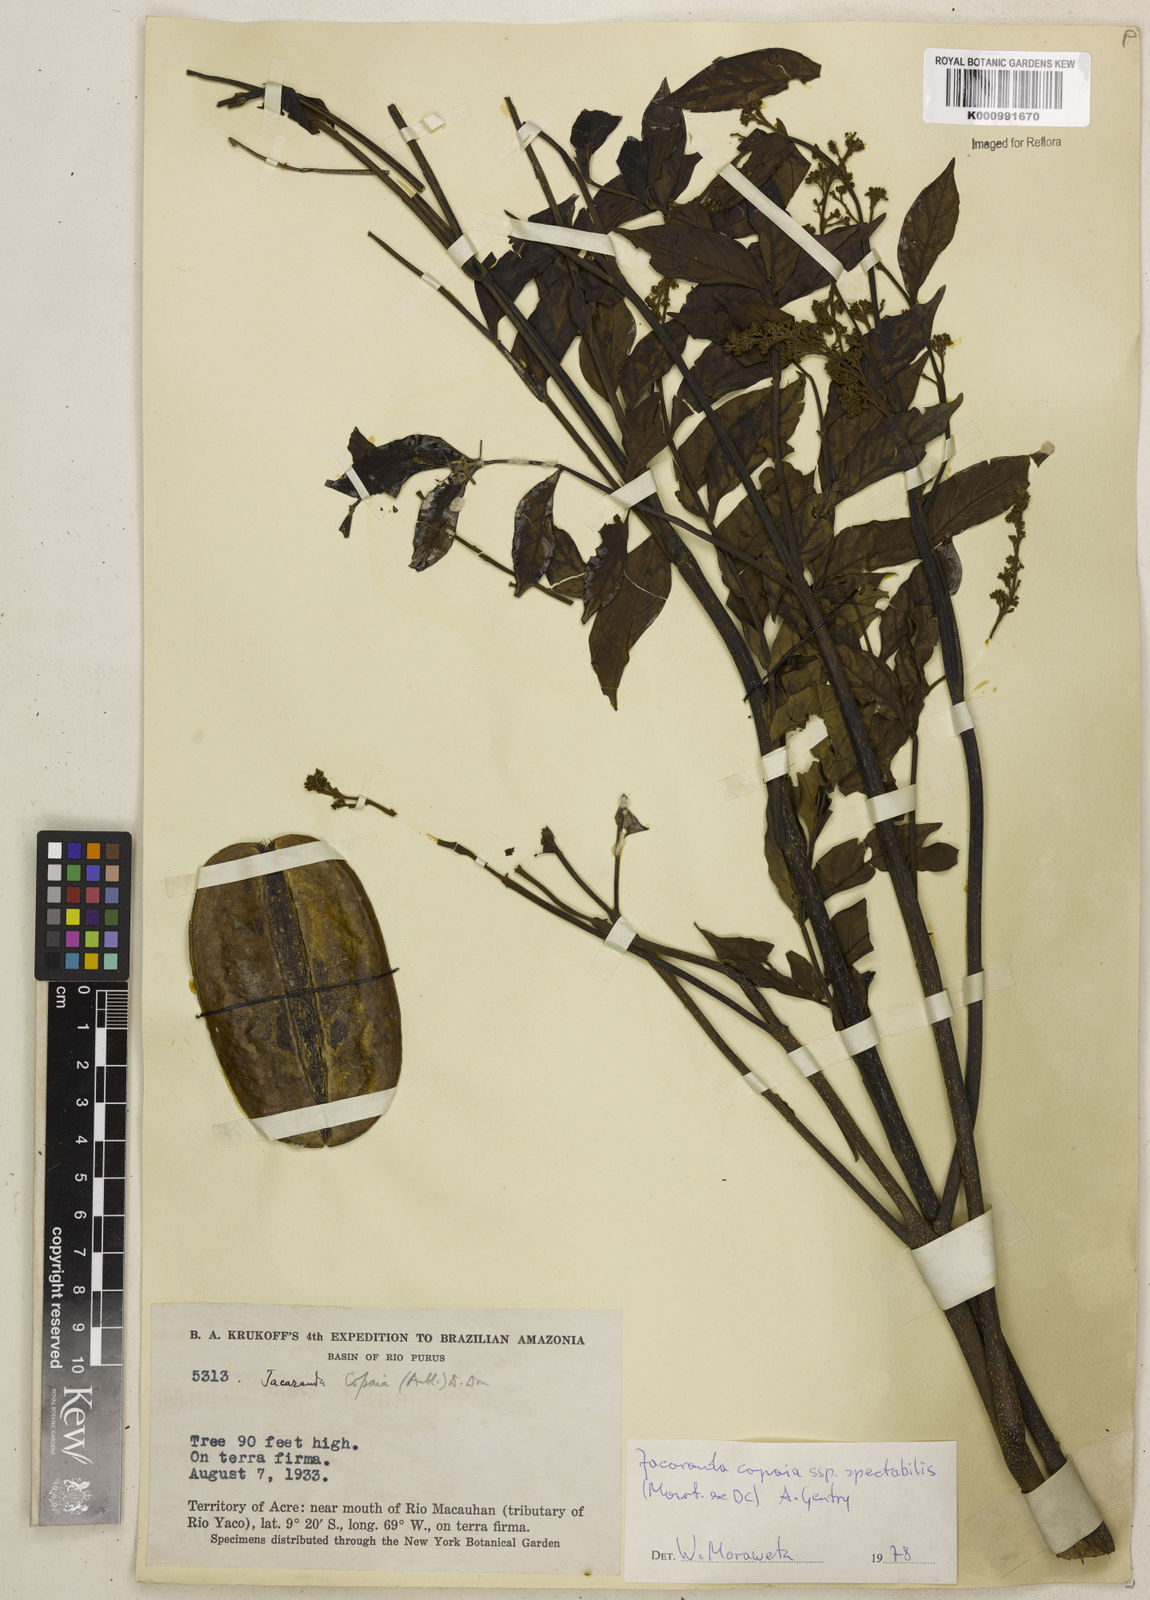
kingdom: Plantae
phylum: Tracheophyta
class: Magnoliopsida
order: Lamiales
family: Bignoniaceae
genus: Jacaranda
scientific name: Jacaranda copaia
